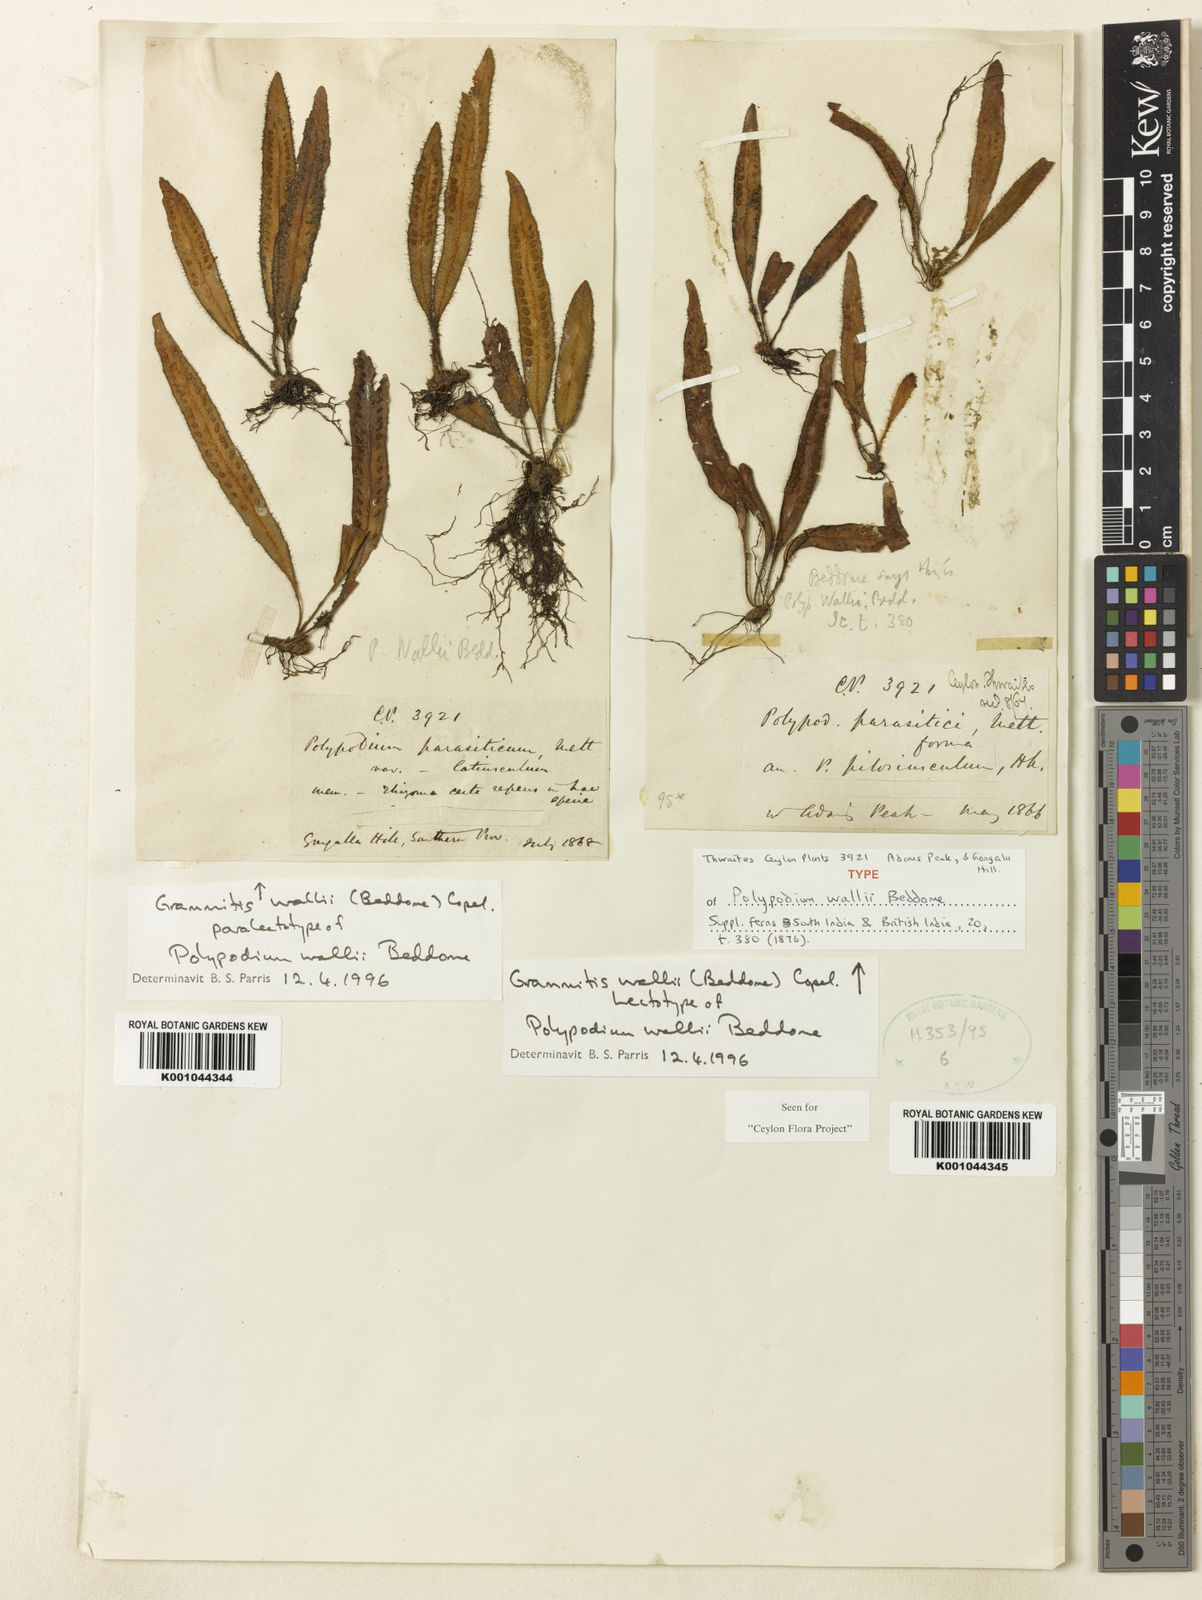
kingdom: Plantae
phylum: Tracheophyta
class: Polypodiopsida
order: Polypodiales
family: Polypodiaceae
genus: Oreogrammitis
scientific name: Oreogrammitis wallii
